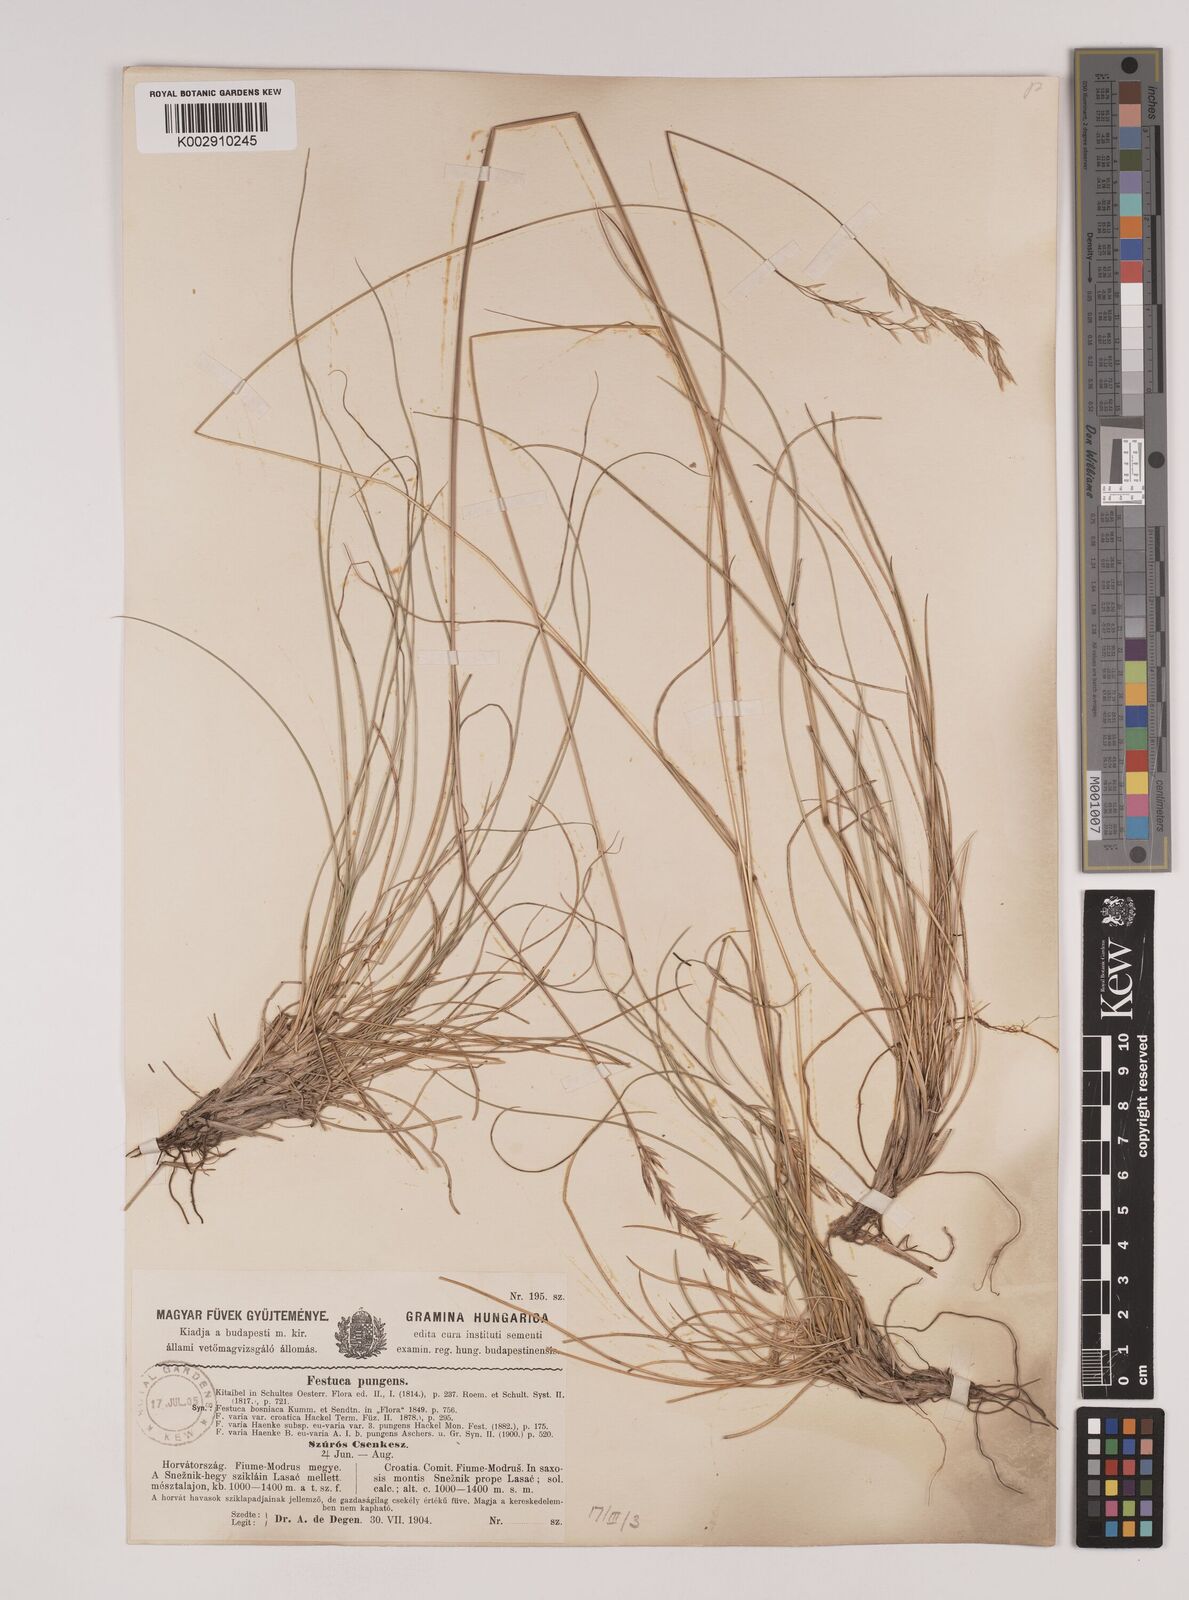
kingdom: Plantae
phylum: Tracheophyta
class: Liliopsida
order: Poales
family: Poaceae
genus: Festuca
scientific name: Festuca bosniaca
